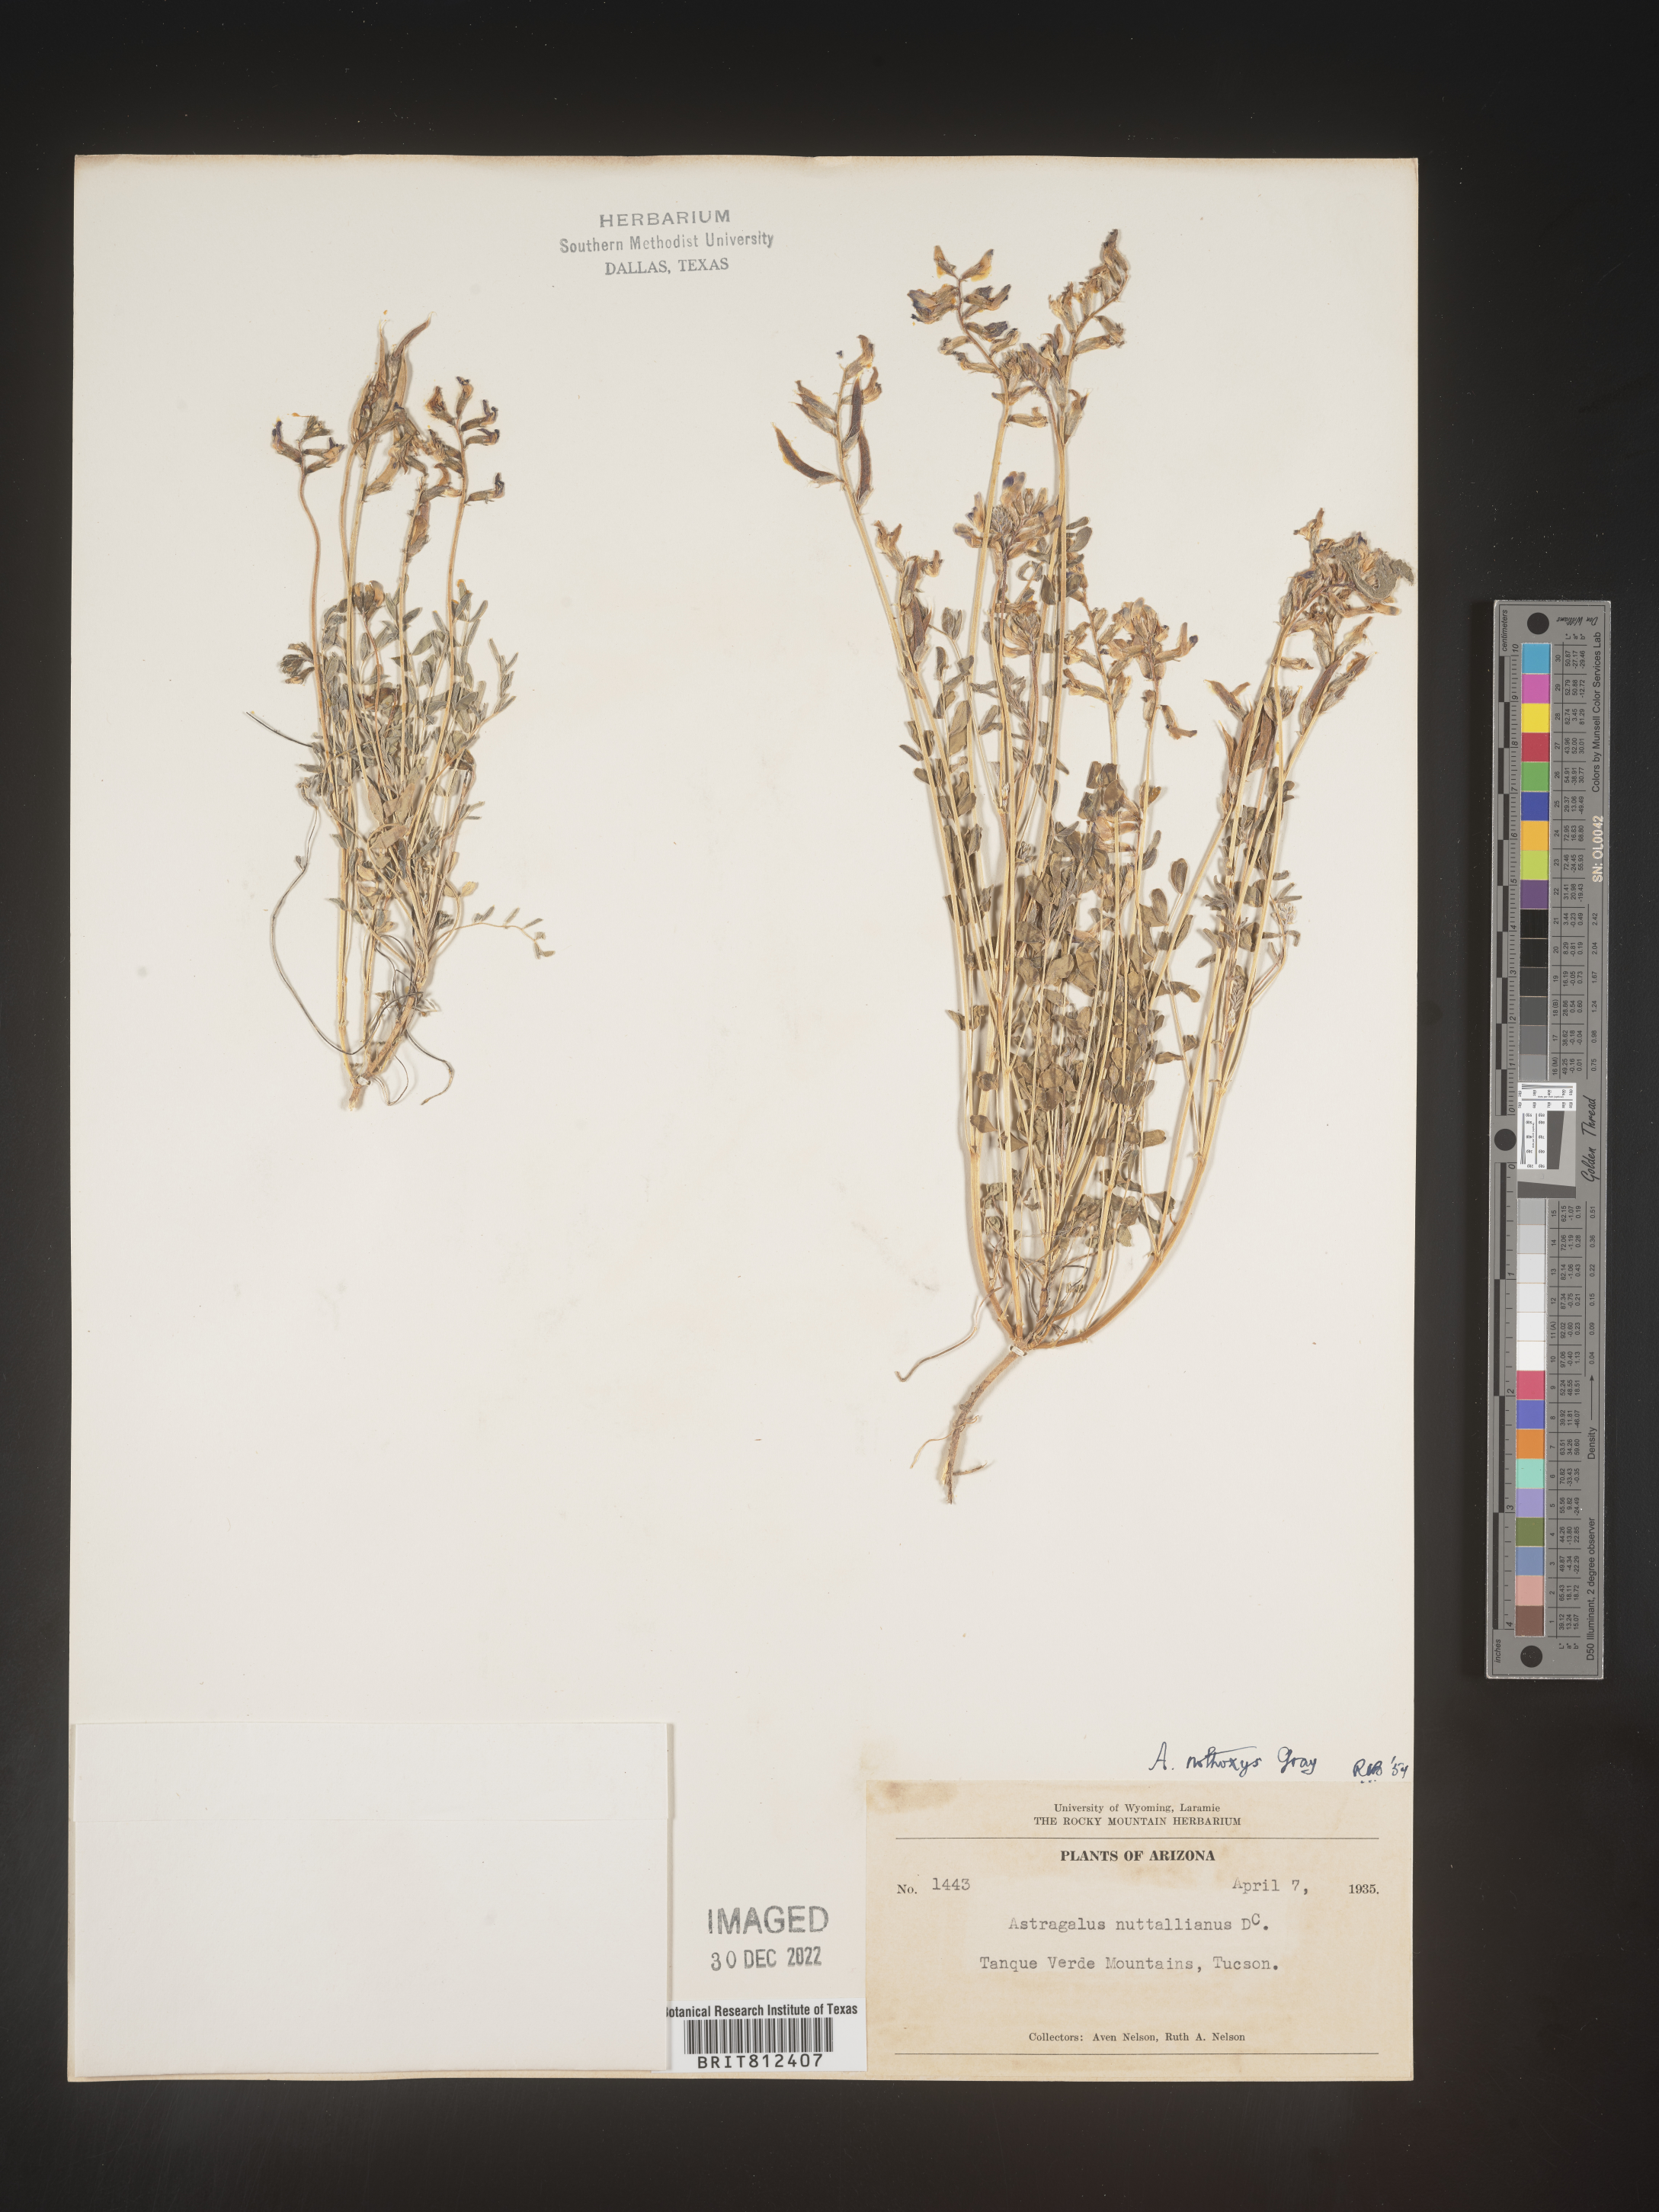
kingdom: Plantae
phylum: Tracheophyta
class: Magnoliopsida
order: Fabales
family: Fabaceae
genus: Astragalus
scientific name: Astragalus
